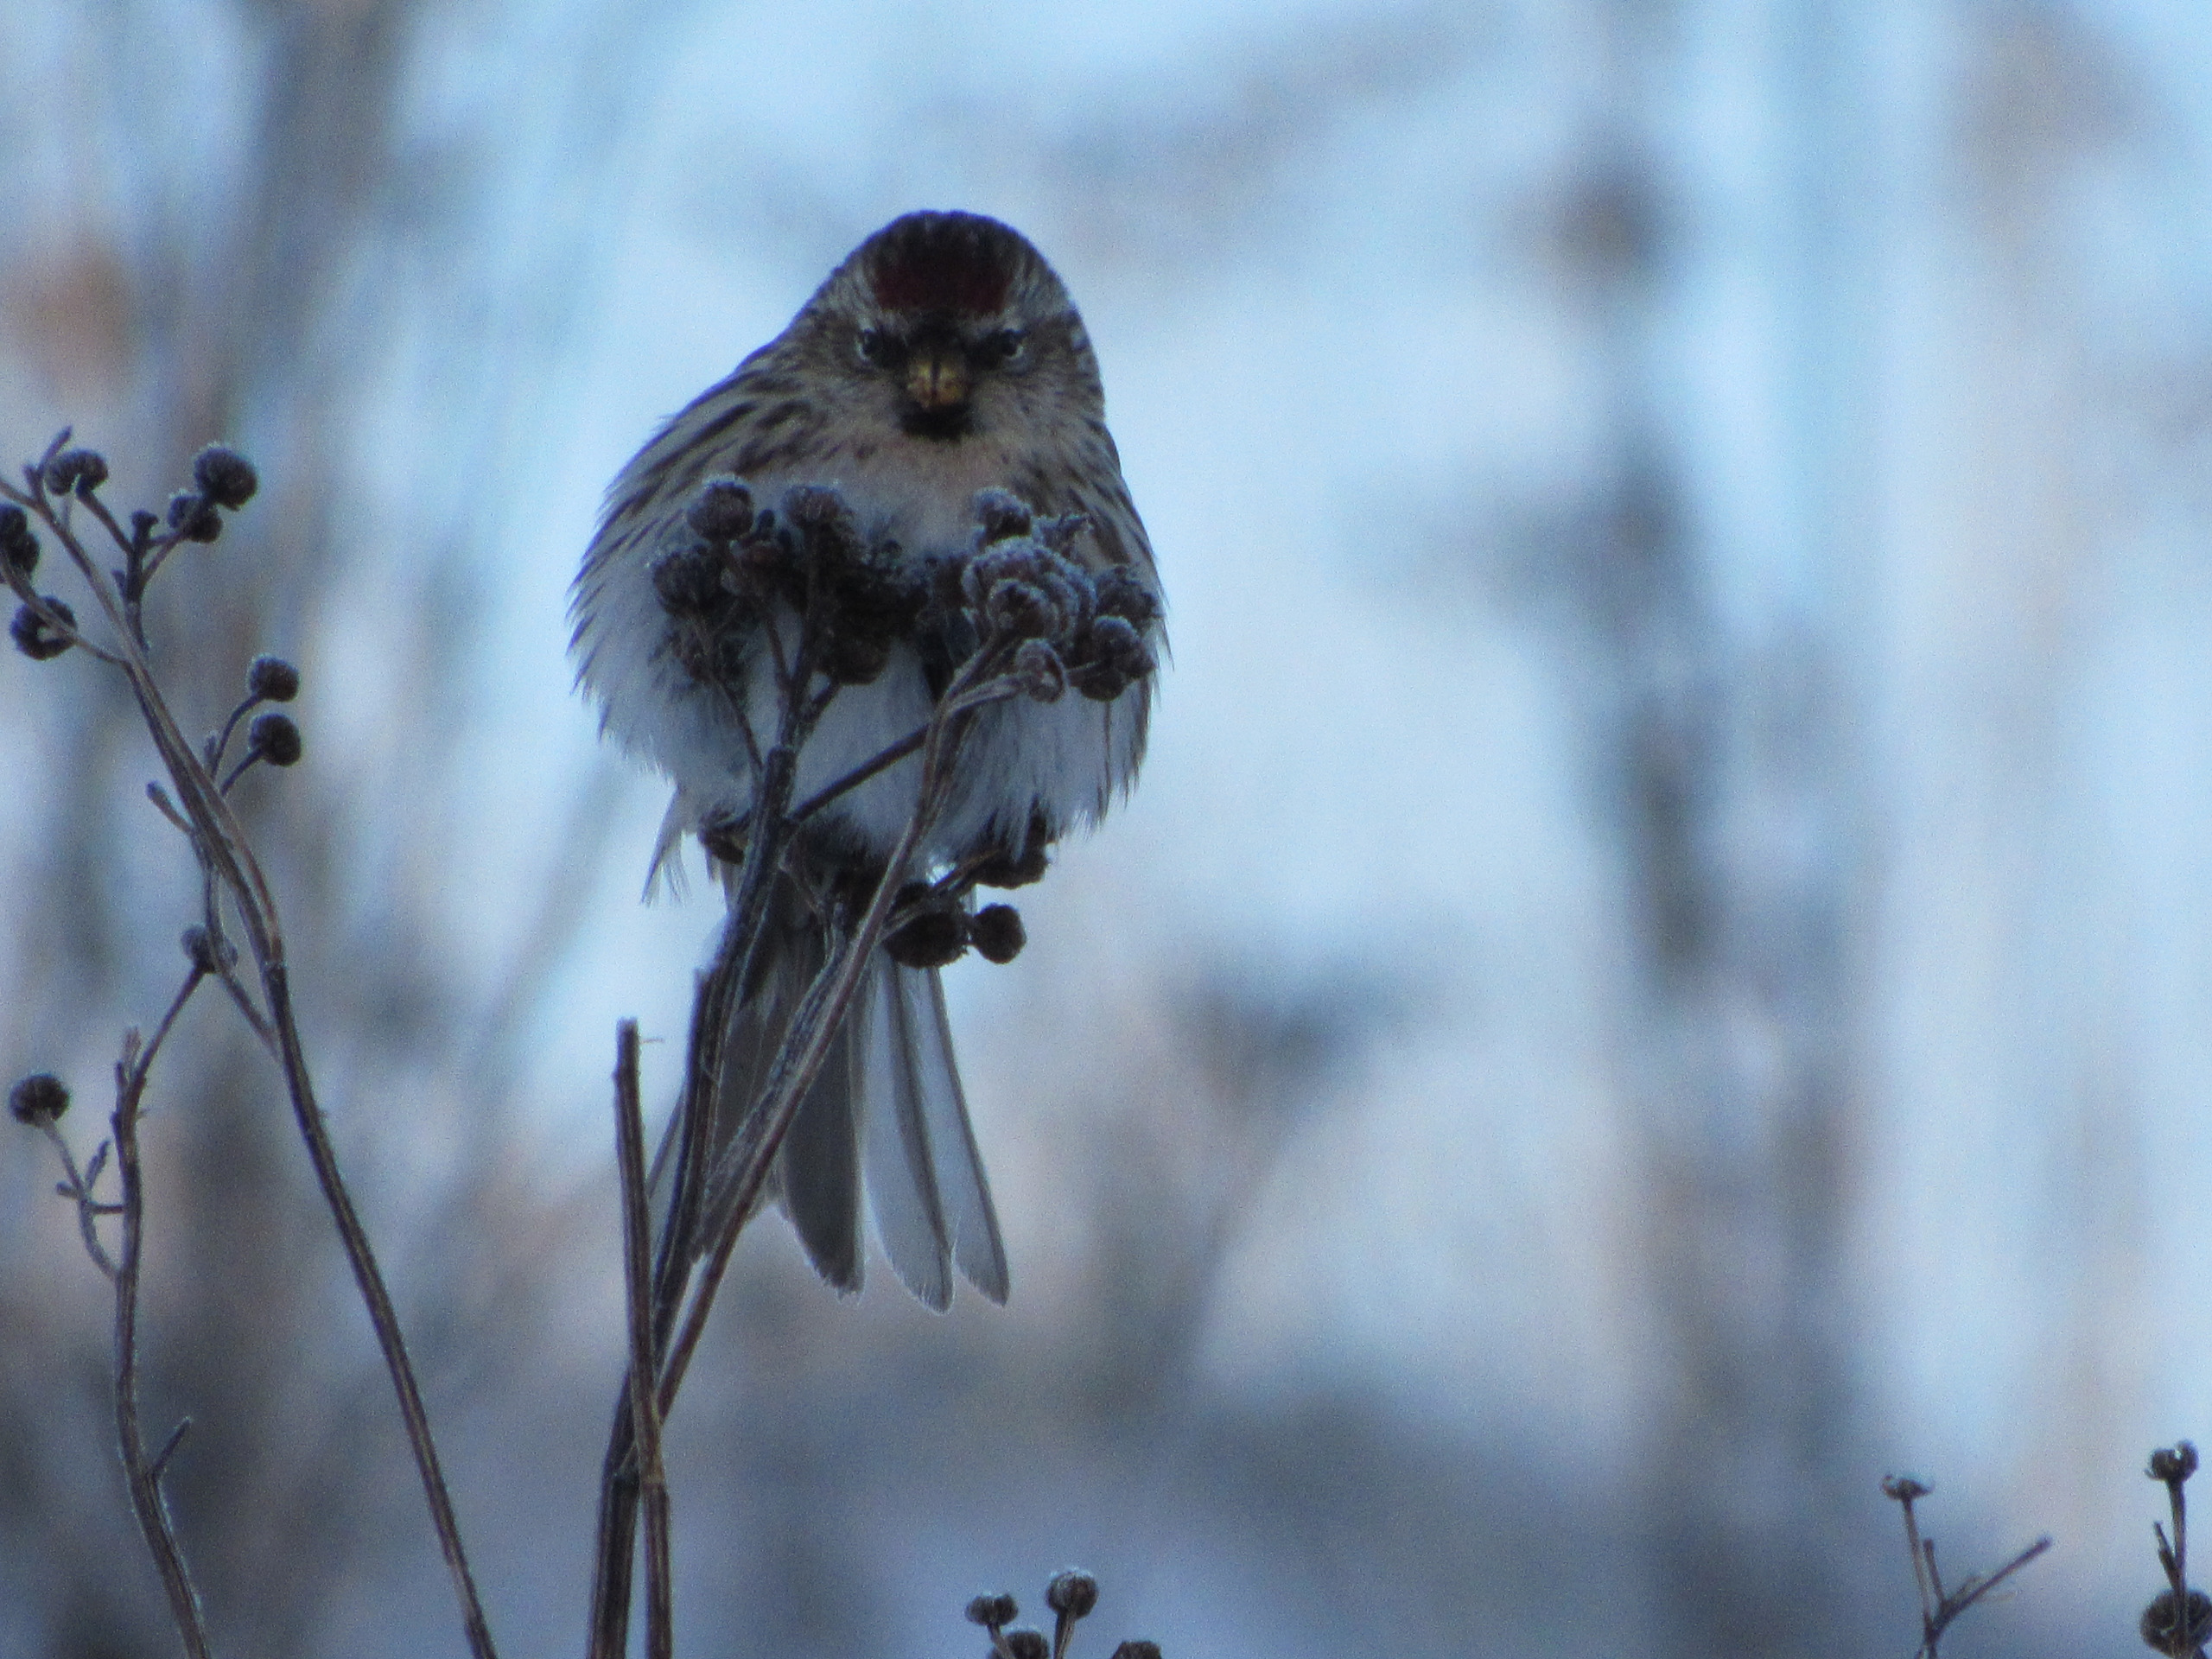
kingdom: Animalia
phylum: Chordata
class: Aves
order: Passeriformes
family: Fringillidae
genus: Acanthis
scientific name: Acanthis flammea
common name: Nordlig gråsisken
